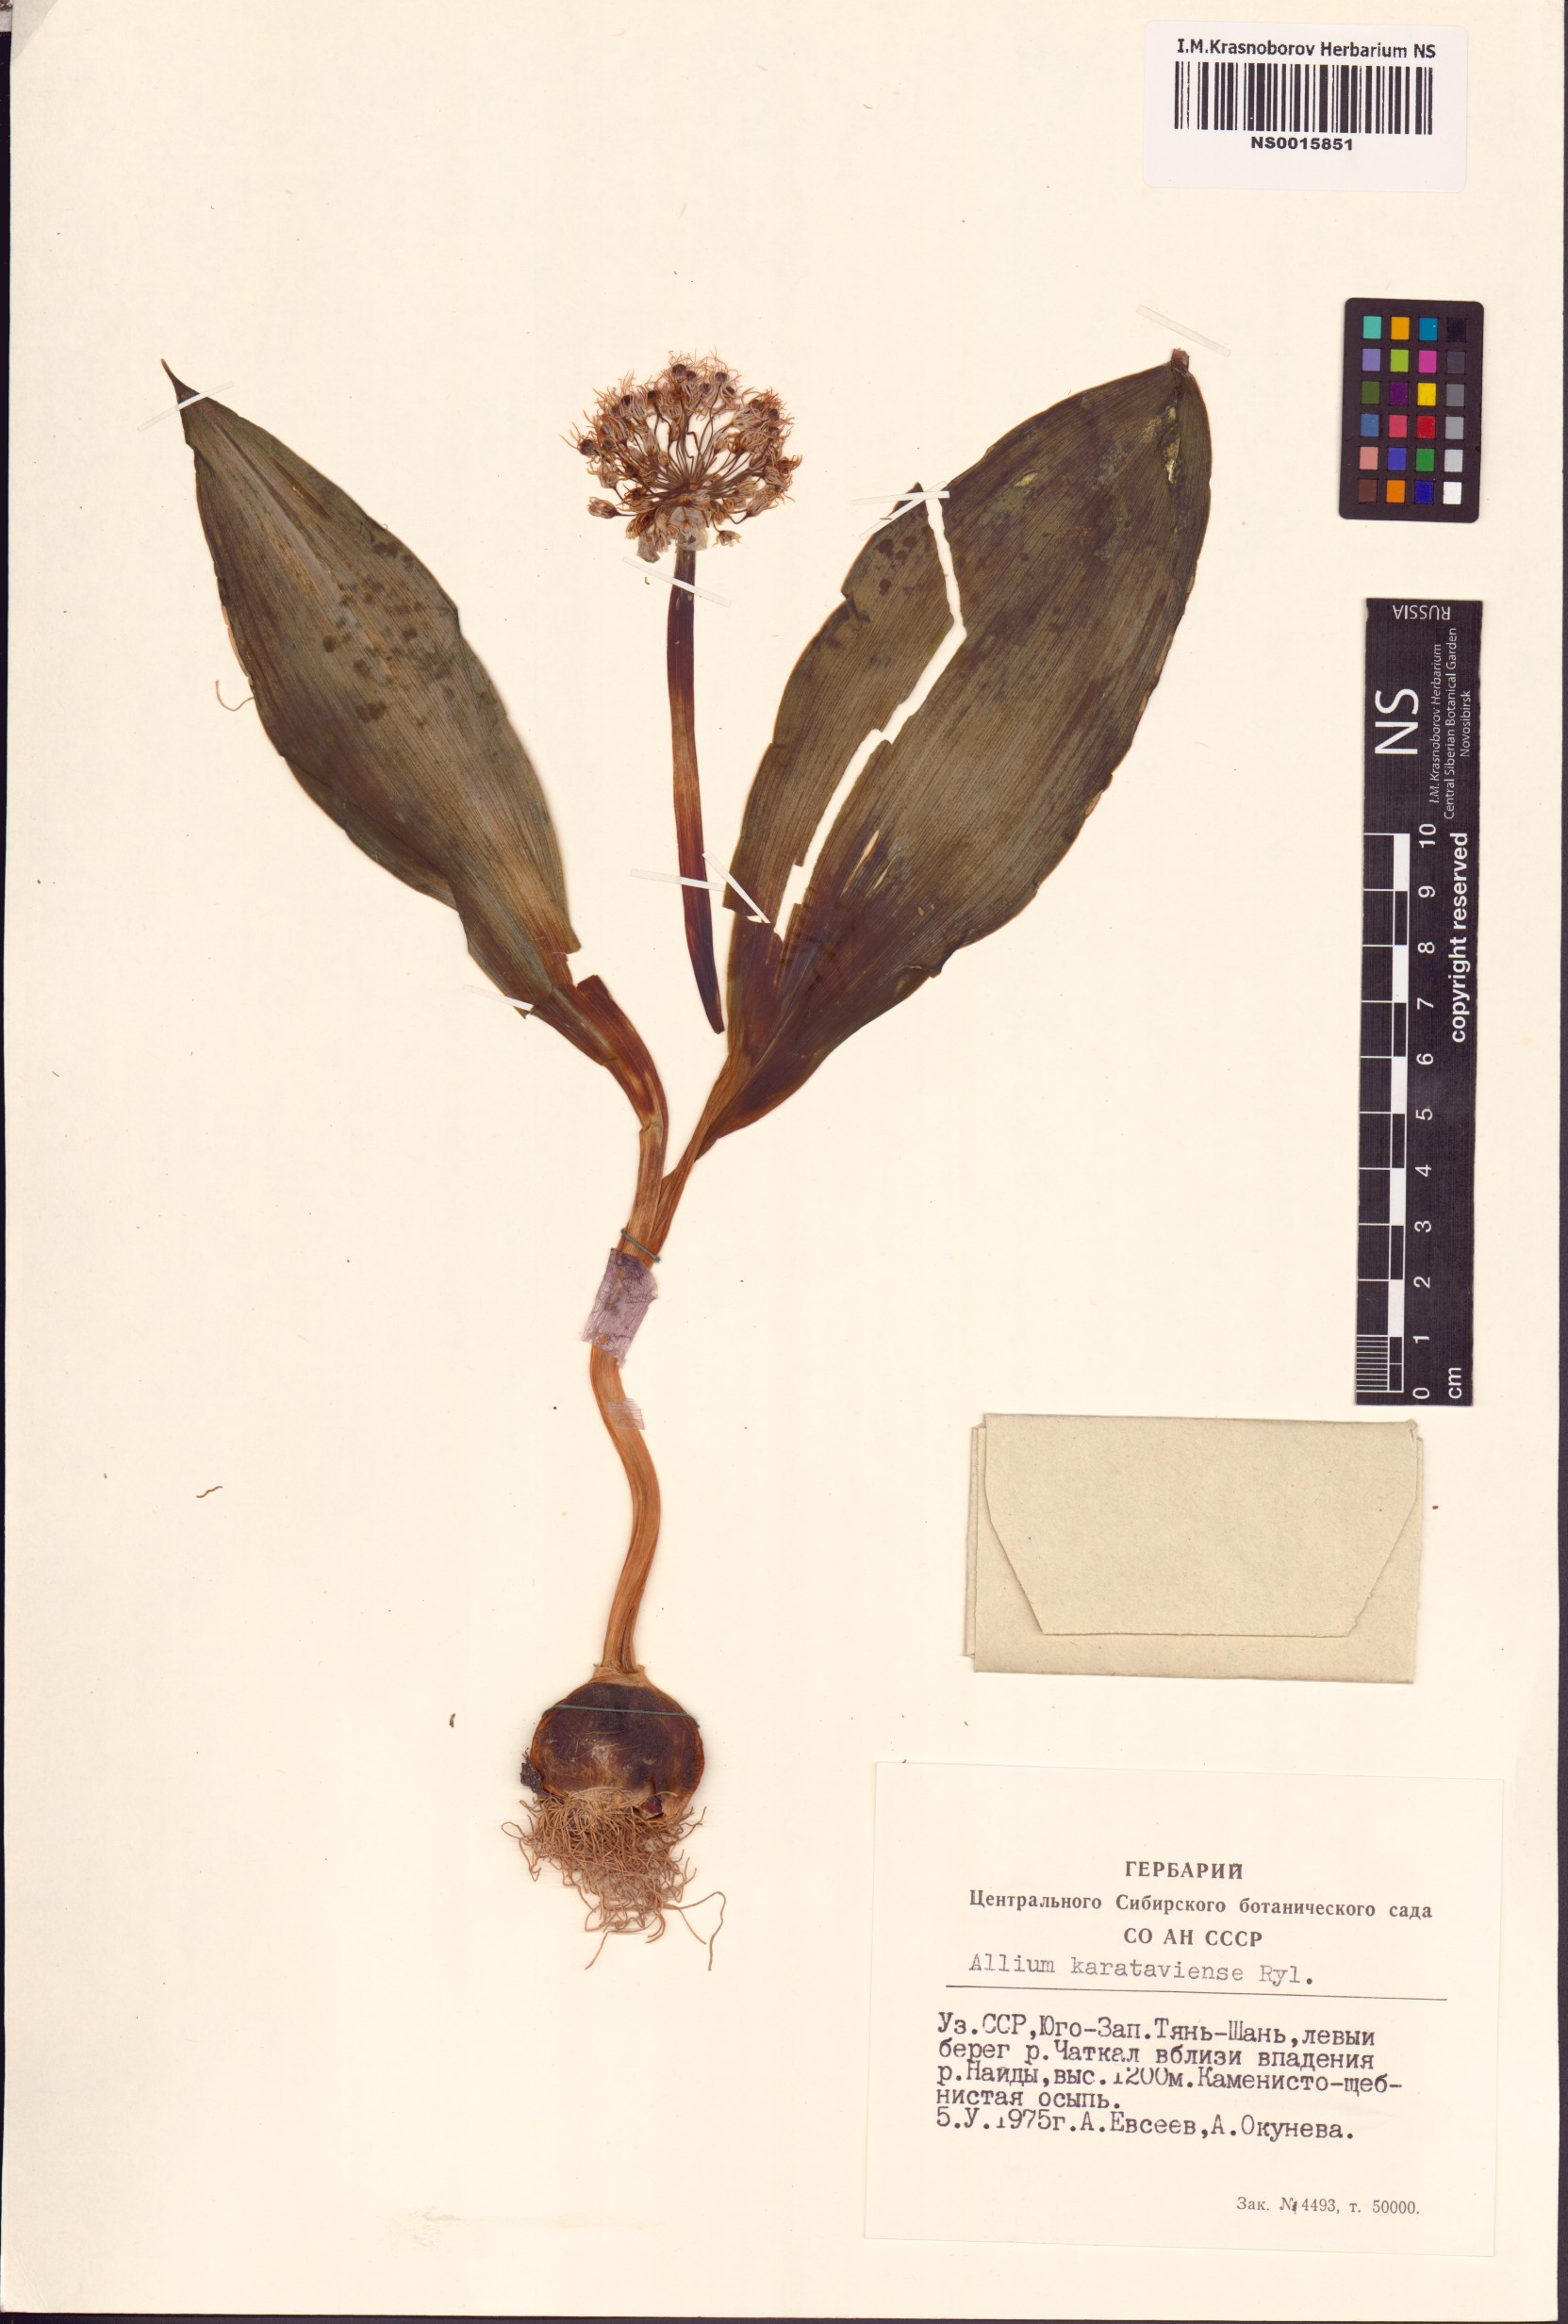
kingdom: Plantae
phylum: Tracheophyta
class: Liliopsida
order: Asparagales
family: Amaryllidaceae
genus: Allium
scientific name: Allium karataviense
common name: Turkestan onion
